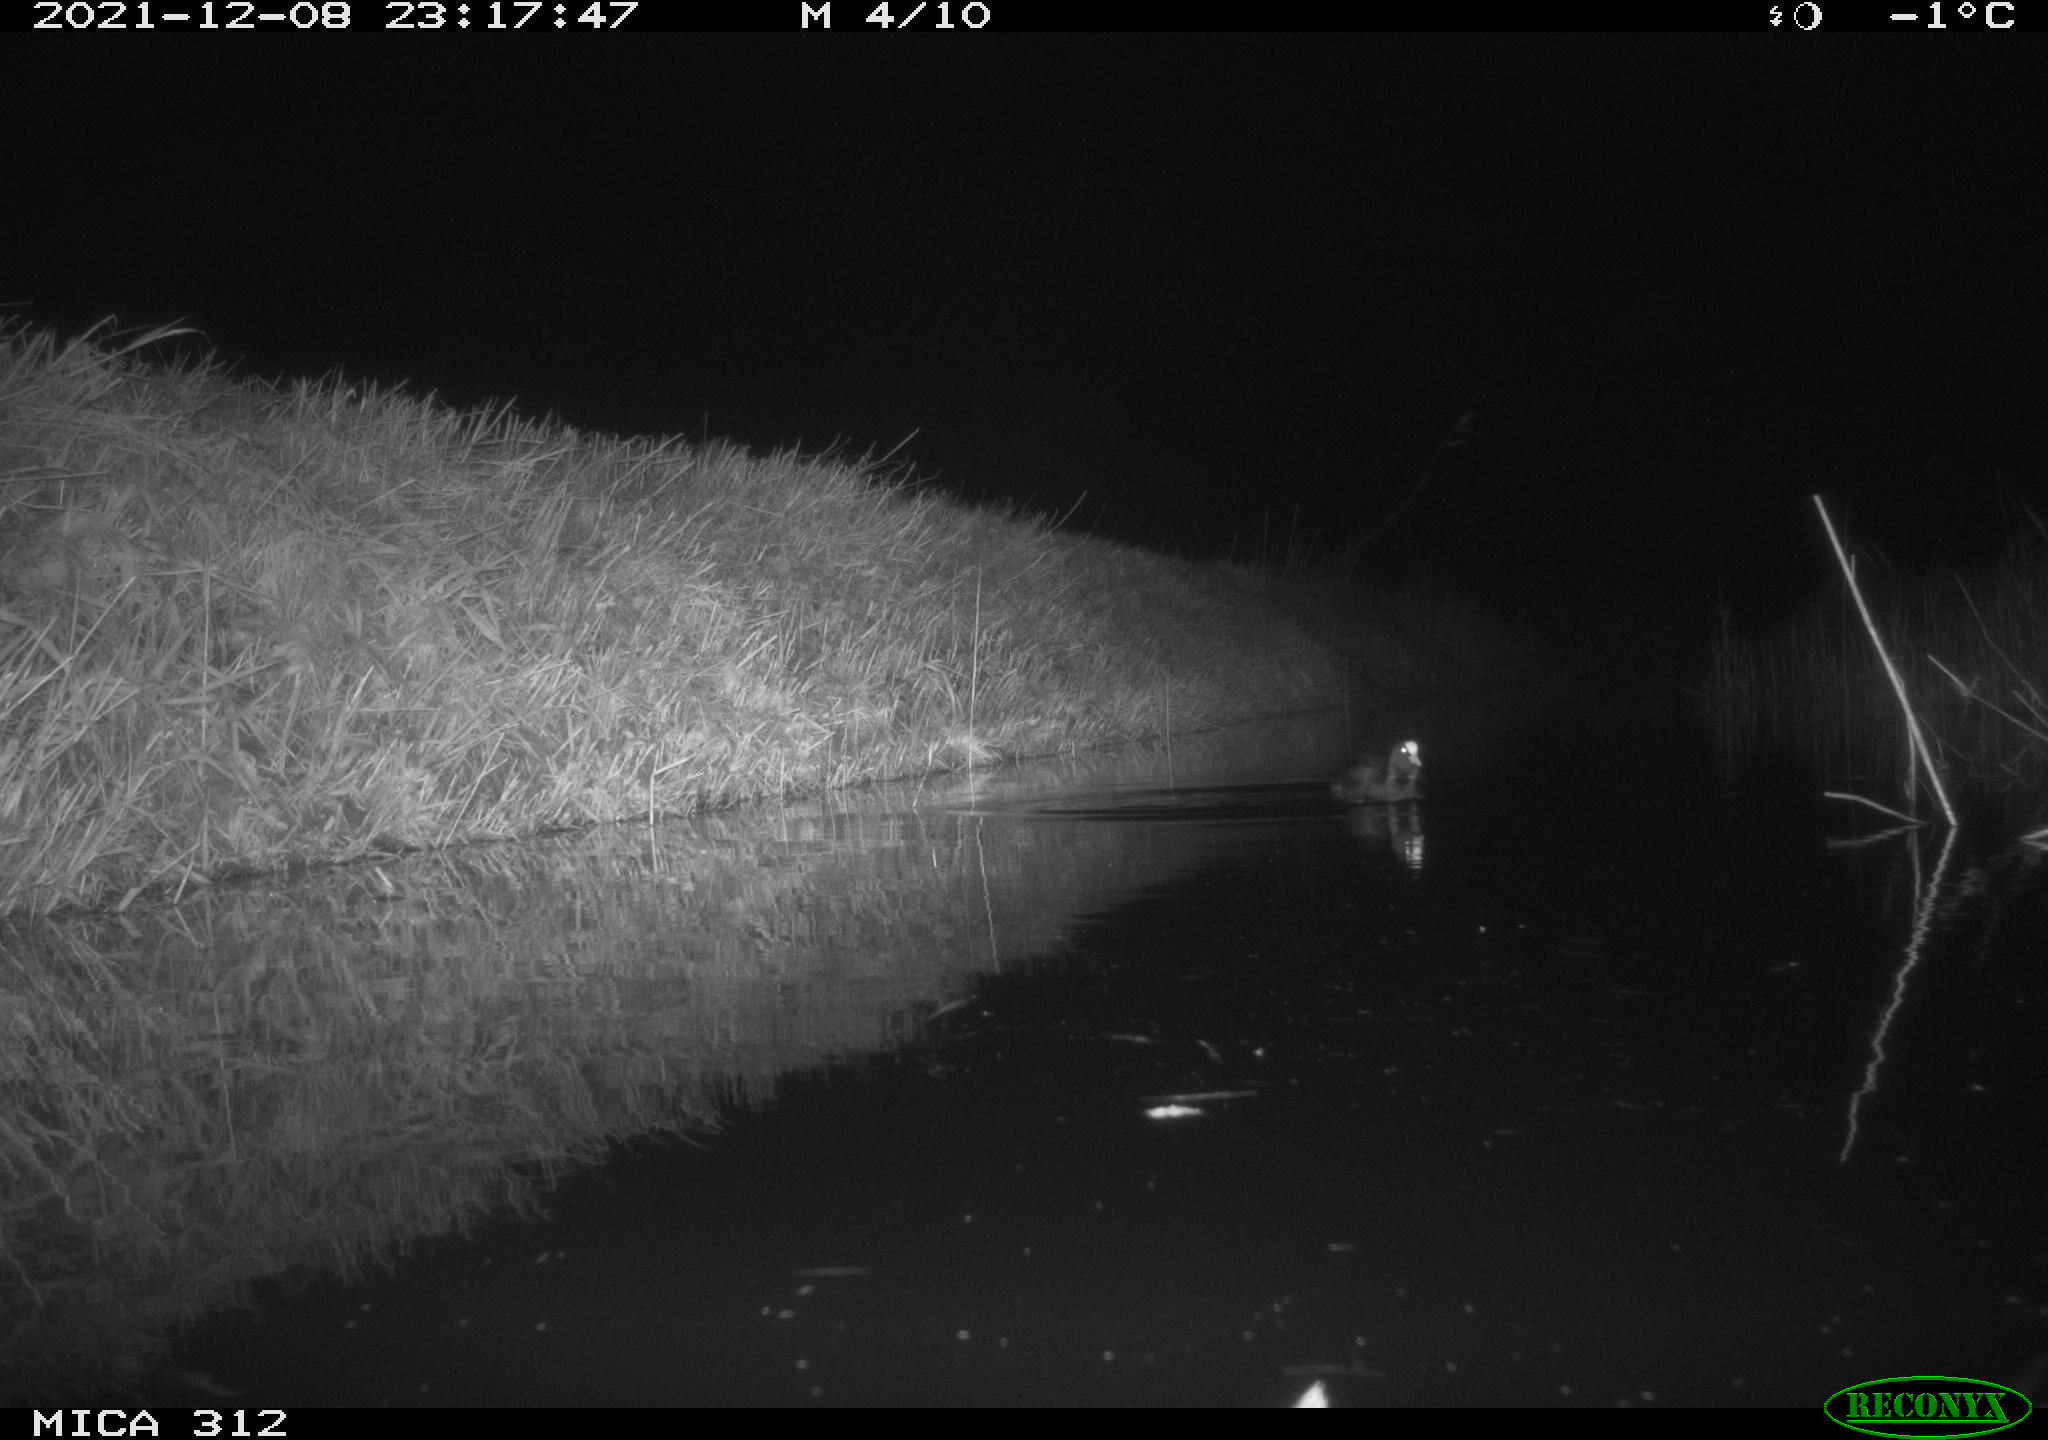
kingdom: Animalia
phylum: Chordata
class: Aves
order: Gruiformes
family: Rallidae
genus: Fulica
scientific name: Fulica atra
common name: Eurasian coot
